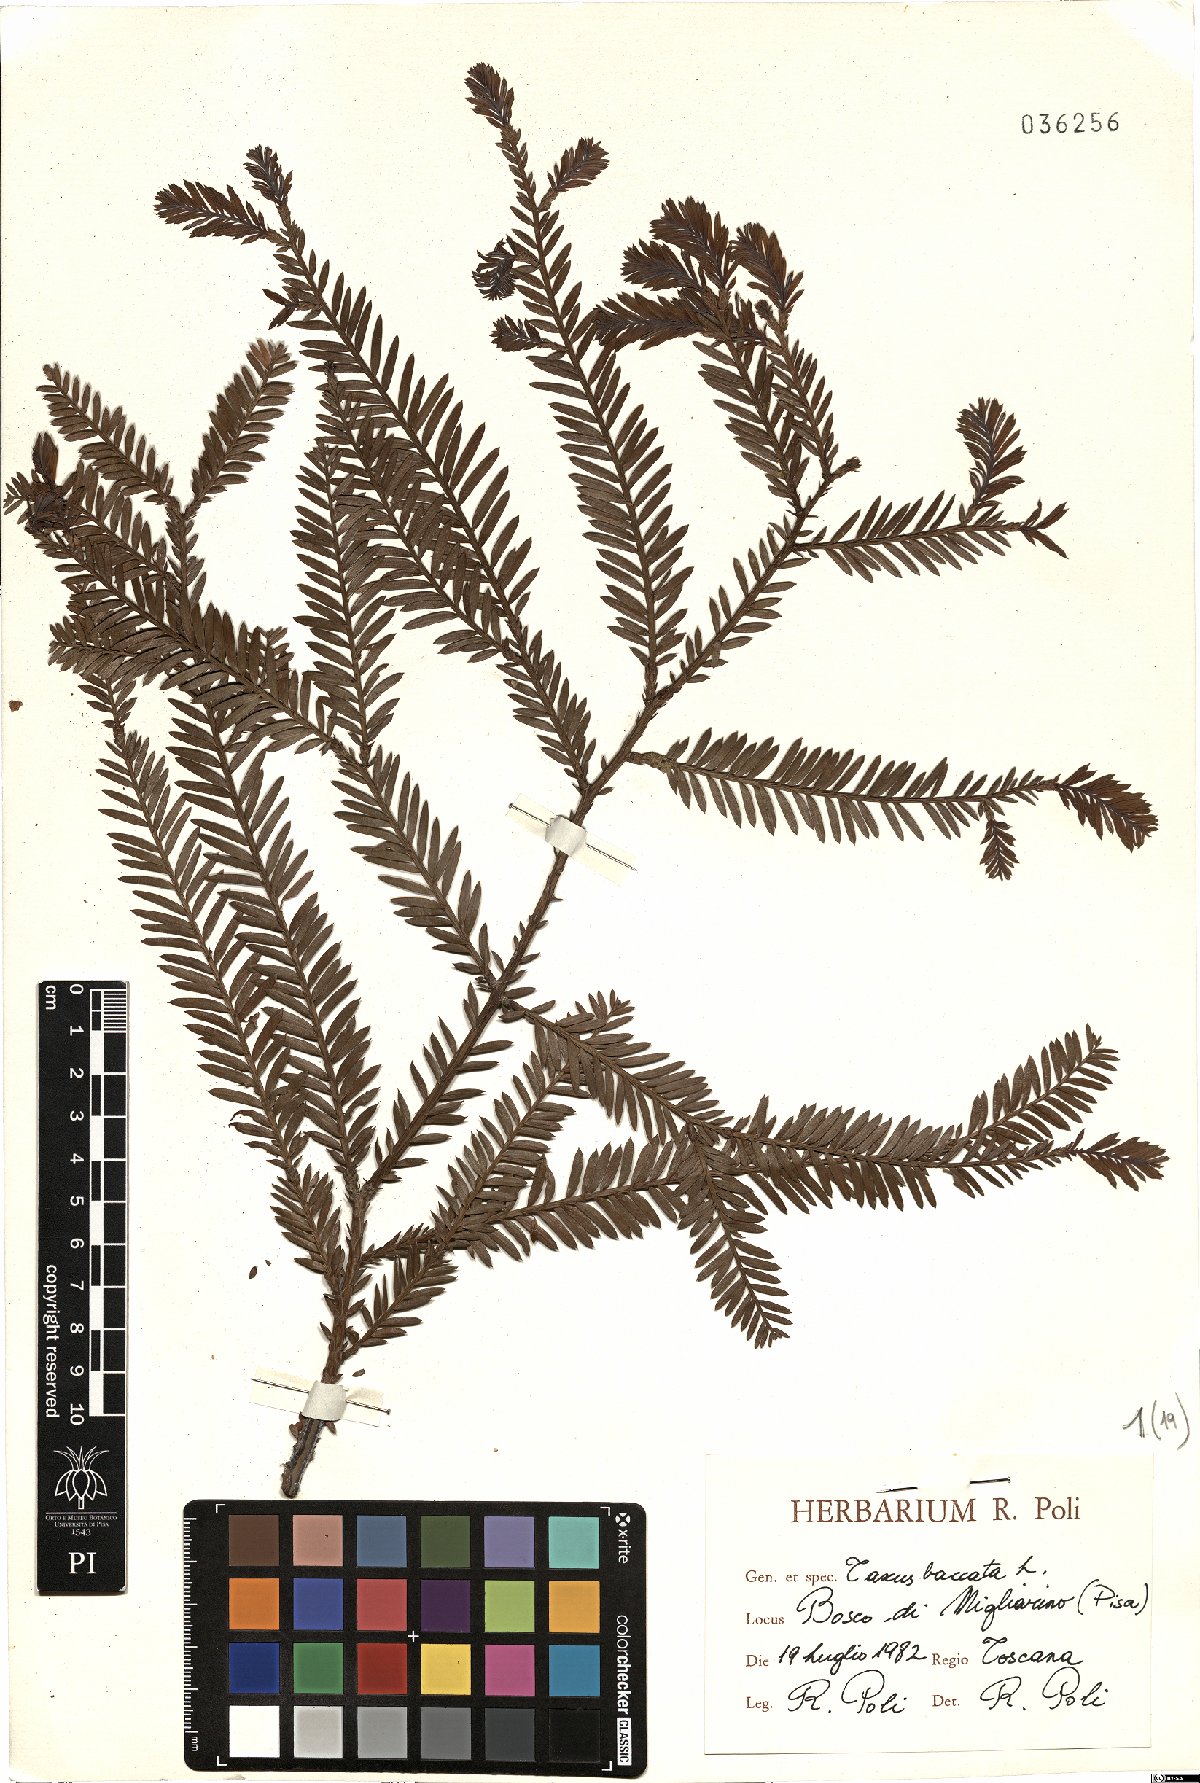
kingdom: Plantae
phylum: Tracheophyta
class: Pinopsida
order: Pinales
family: Taxaceae
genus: Taxus
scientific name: Taxus baccata
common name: Yew
